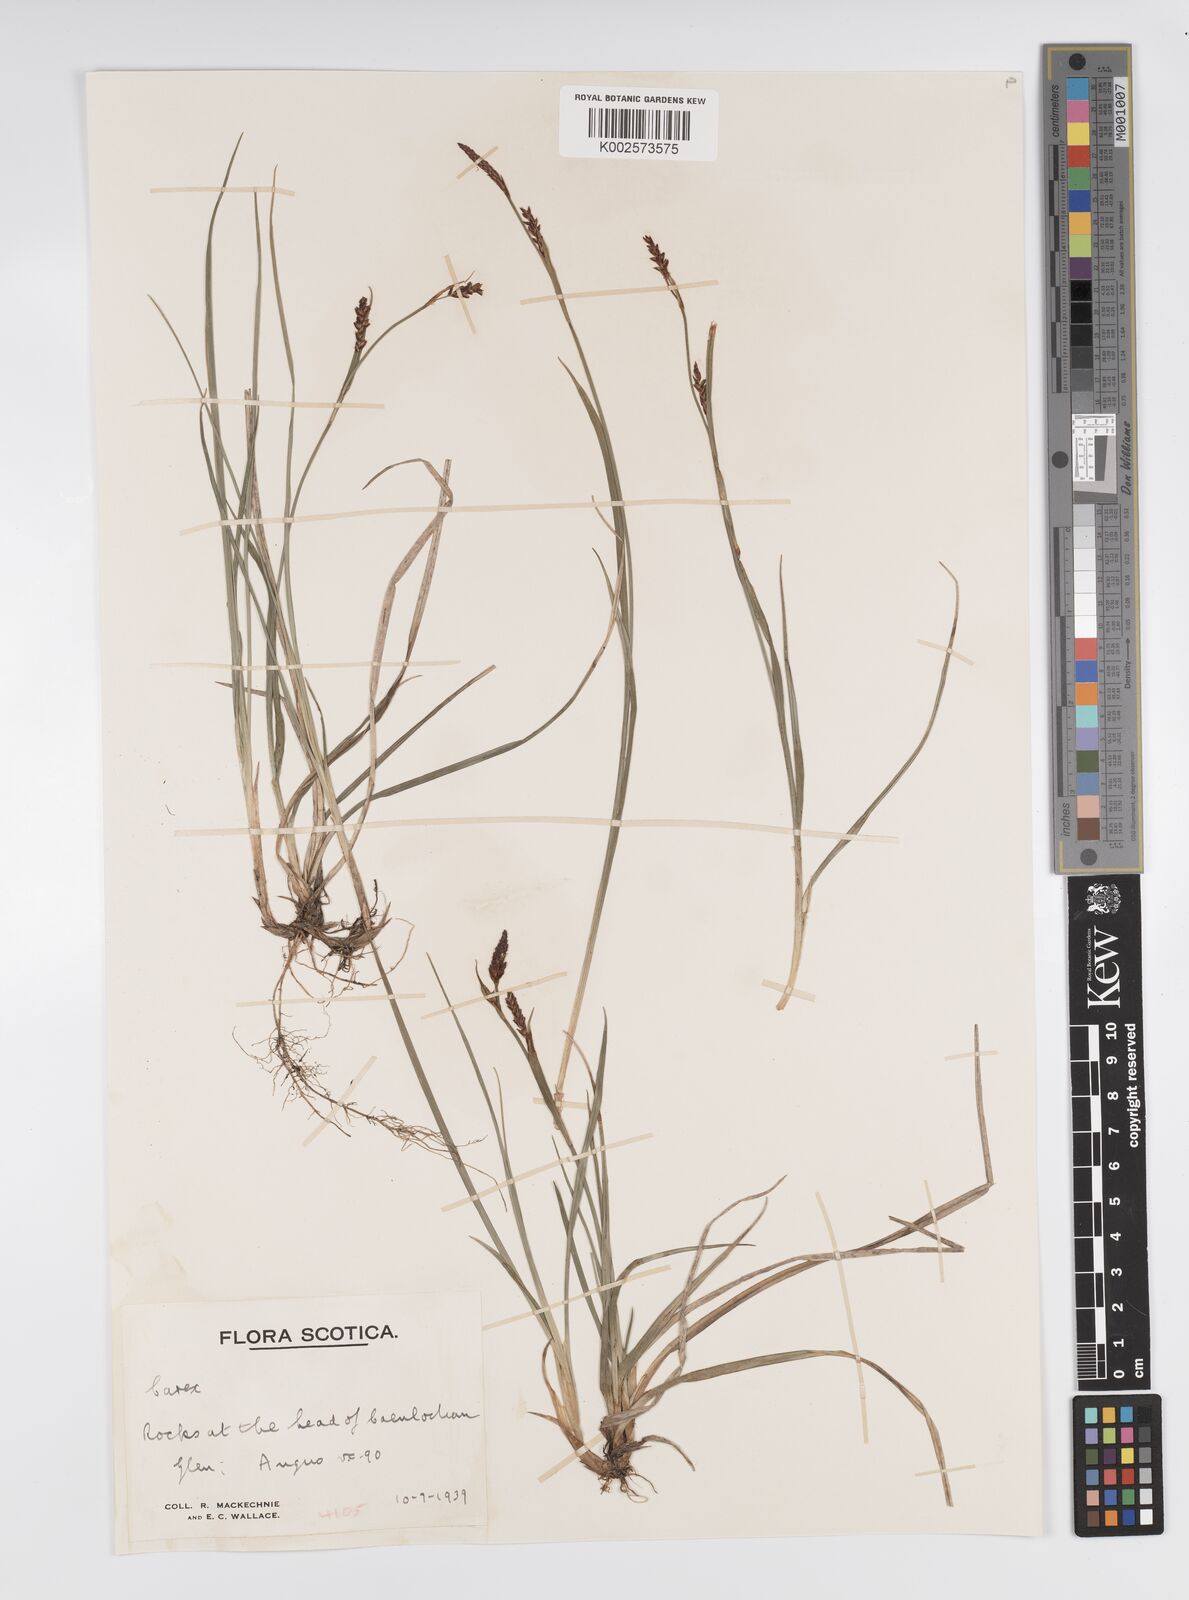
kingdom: Plantae
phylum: Tracheophyta
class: Liliopsida
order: Poales
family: Cyperaceae
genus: Carex
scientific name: Carex panicea
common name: Carnation sedge
